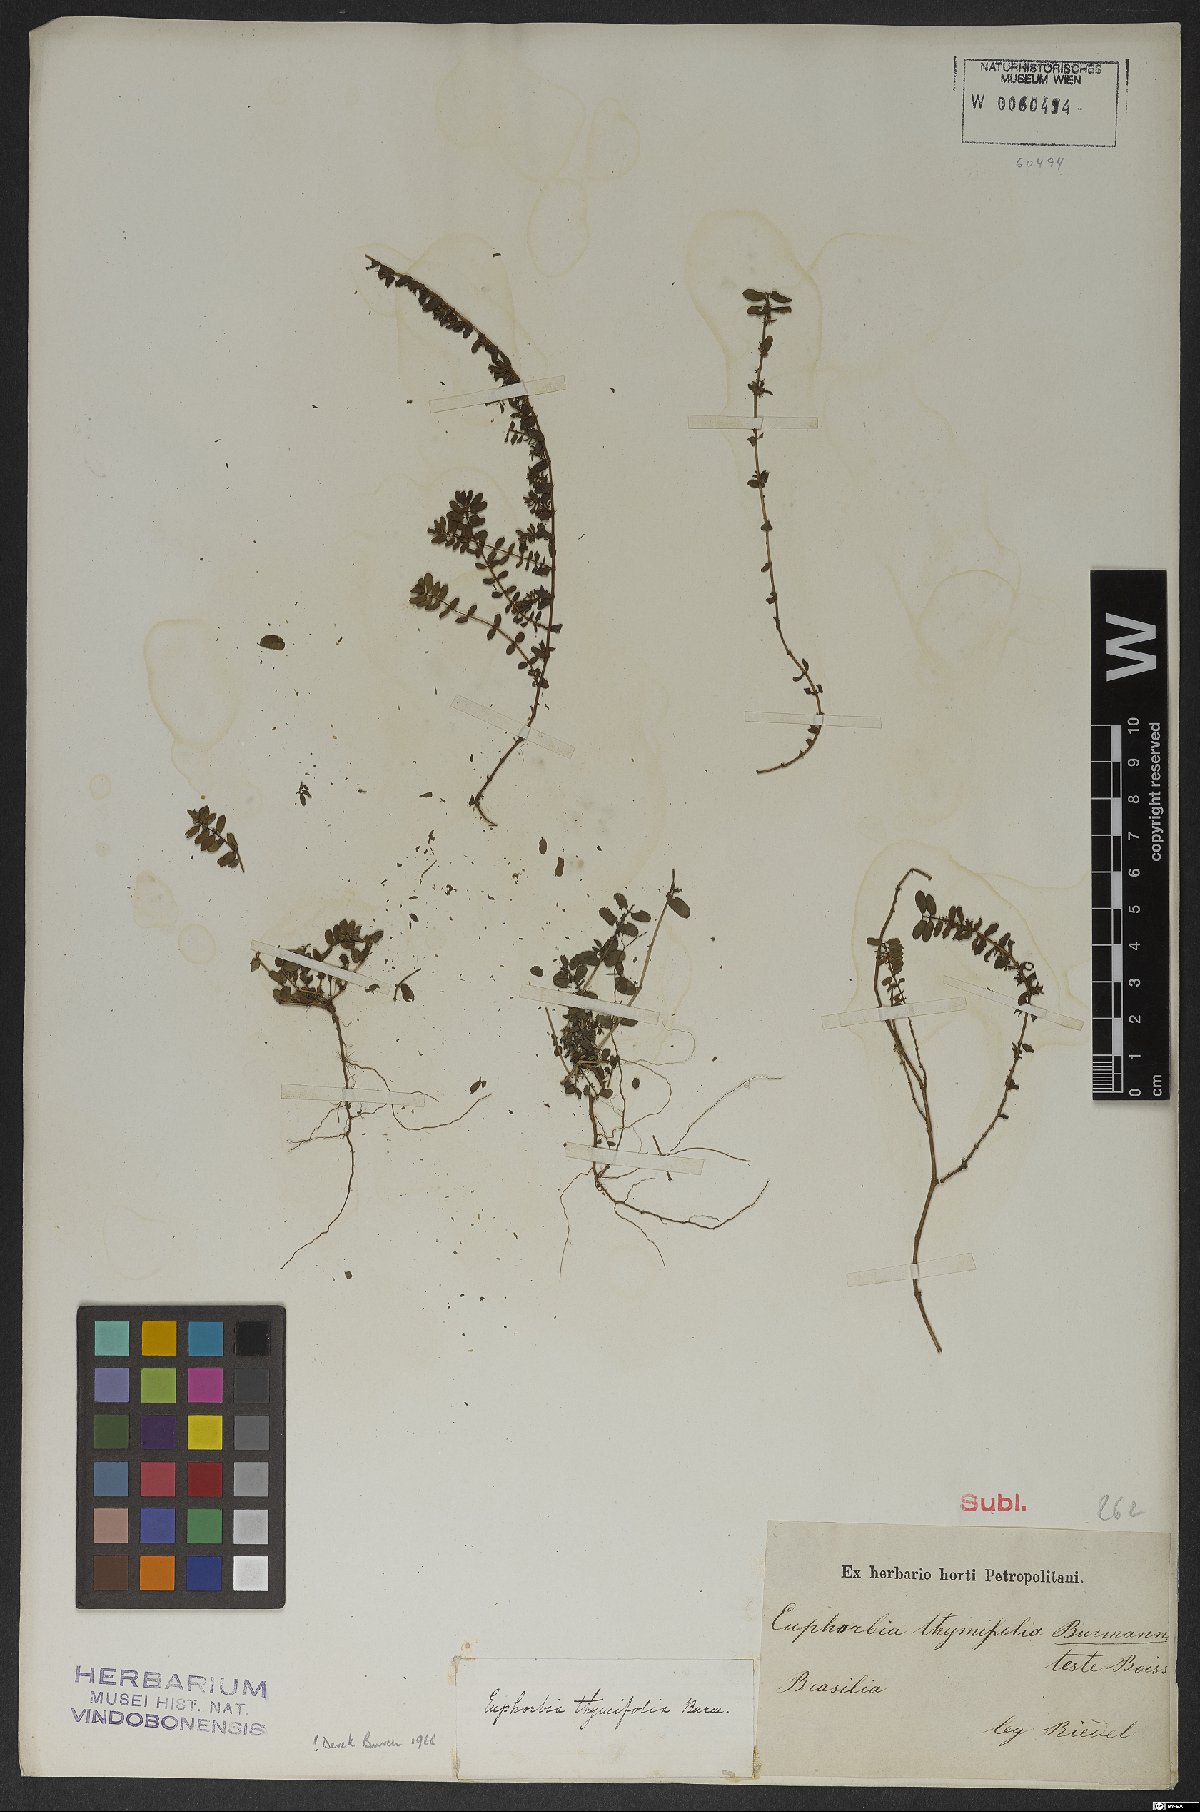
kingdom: Plantae
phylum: Tracheophyta
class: Magnoliopsida
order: Malpighiales
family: Euphorbiaceae
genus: Euphorbia
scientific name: Euphorbia scordiifolia
